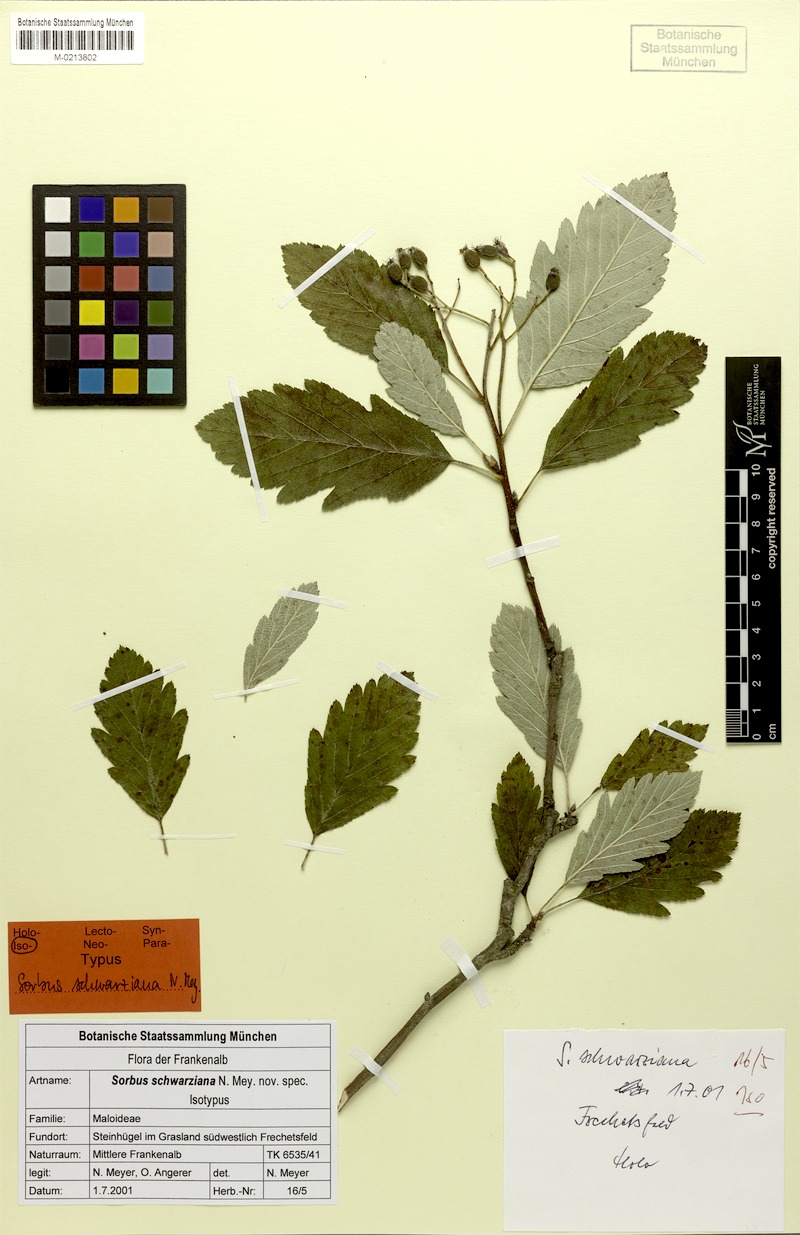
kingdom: Plantae
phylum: Tracheophyta
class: Magnoliopsida
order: Rosales
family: Rosaceae
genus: Hedlundia
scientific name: Hedlundia schwarziana
